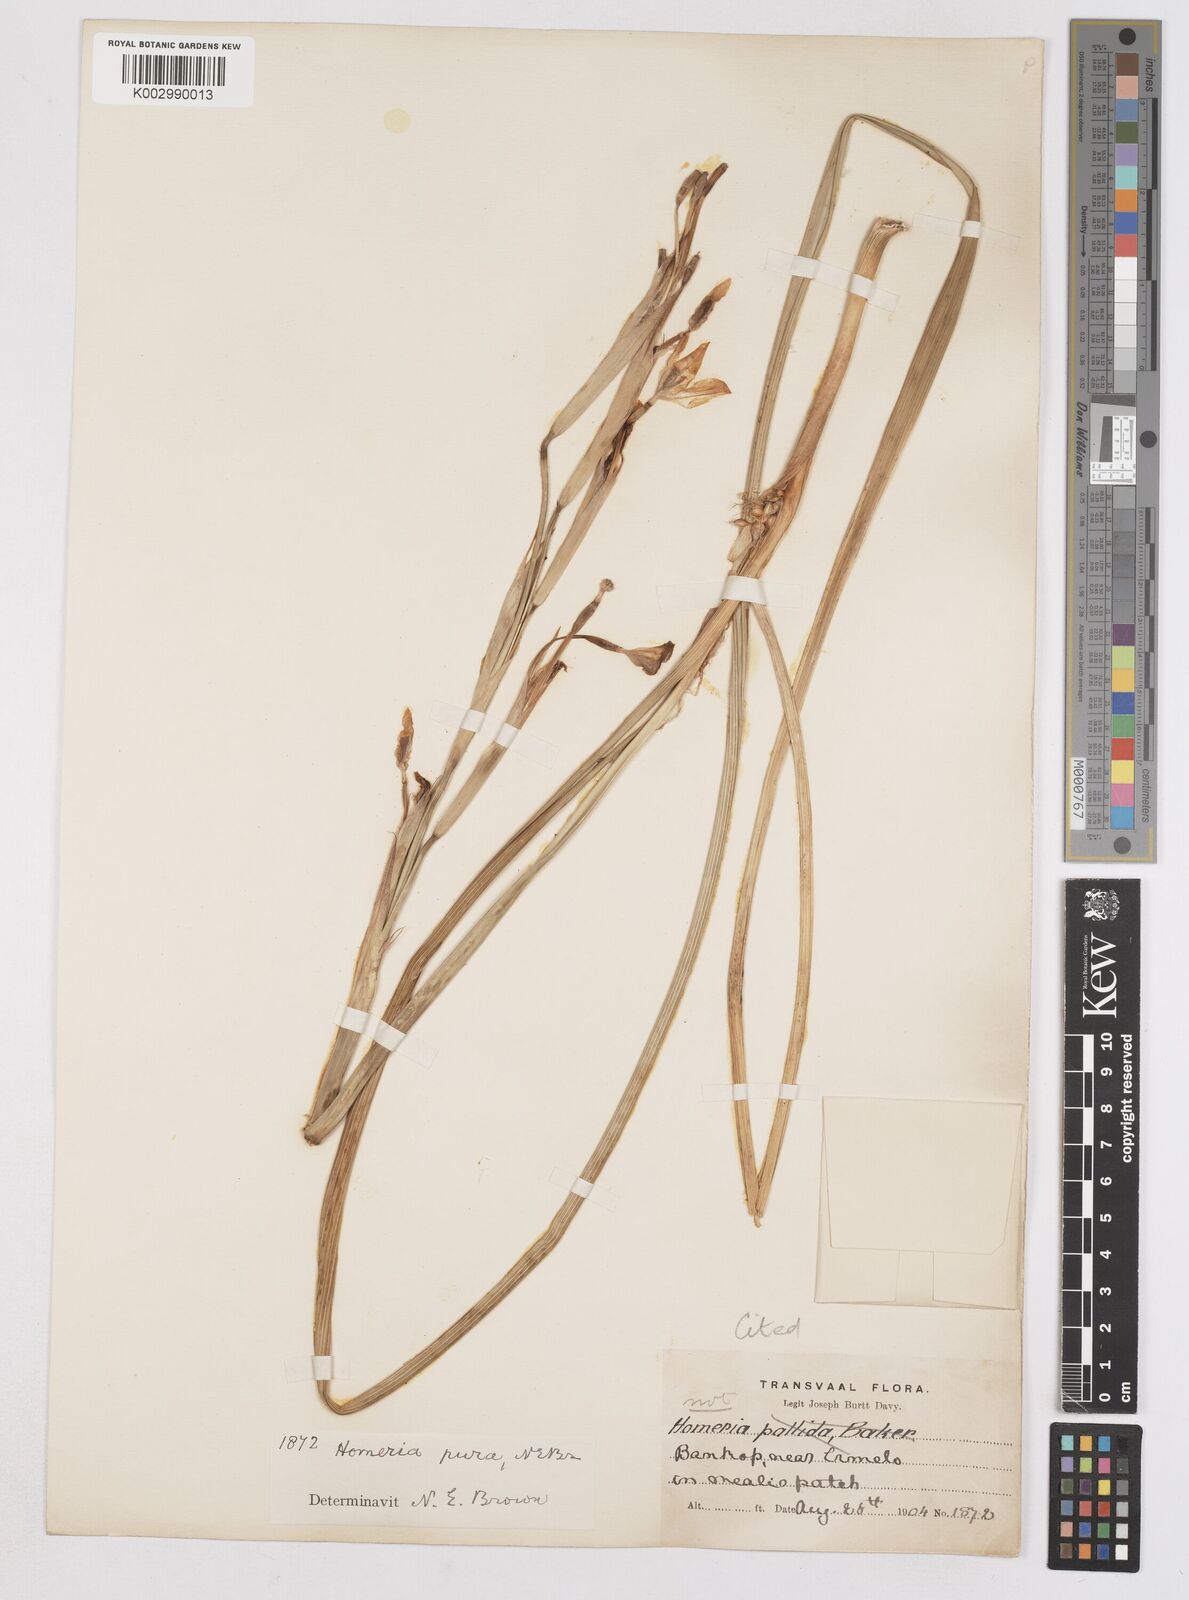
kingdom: Plantae
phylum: Tracheophyta
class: Liliopsida
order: Asparagales
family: Iridaceae
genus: Moraea
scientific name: Moraea pallida
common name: Yellow tulp
